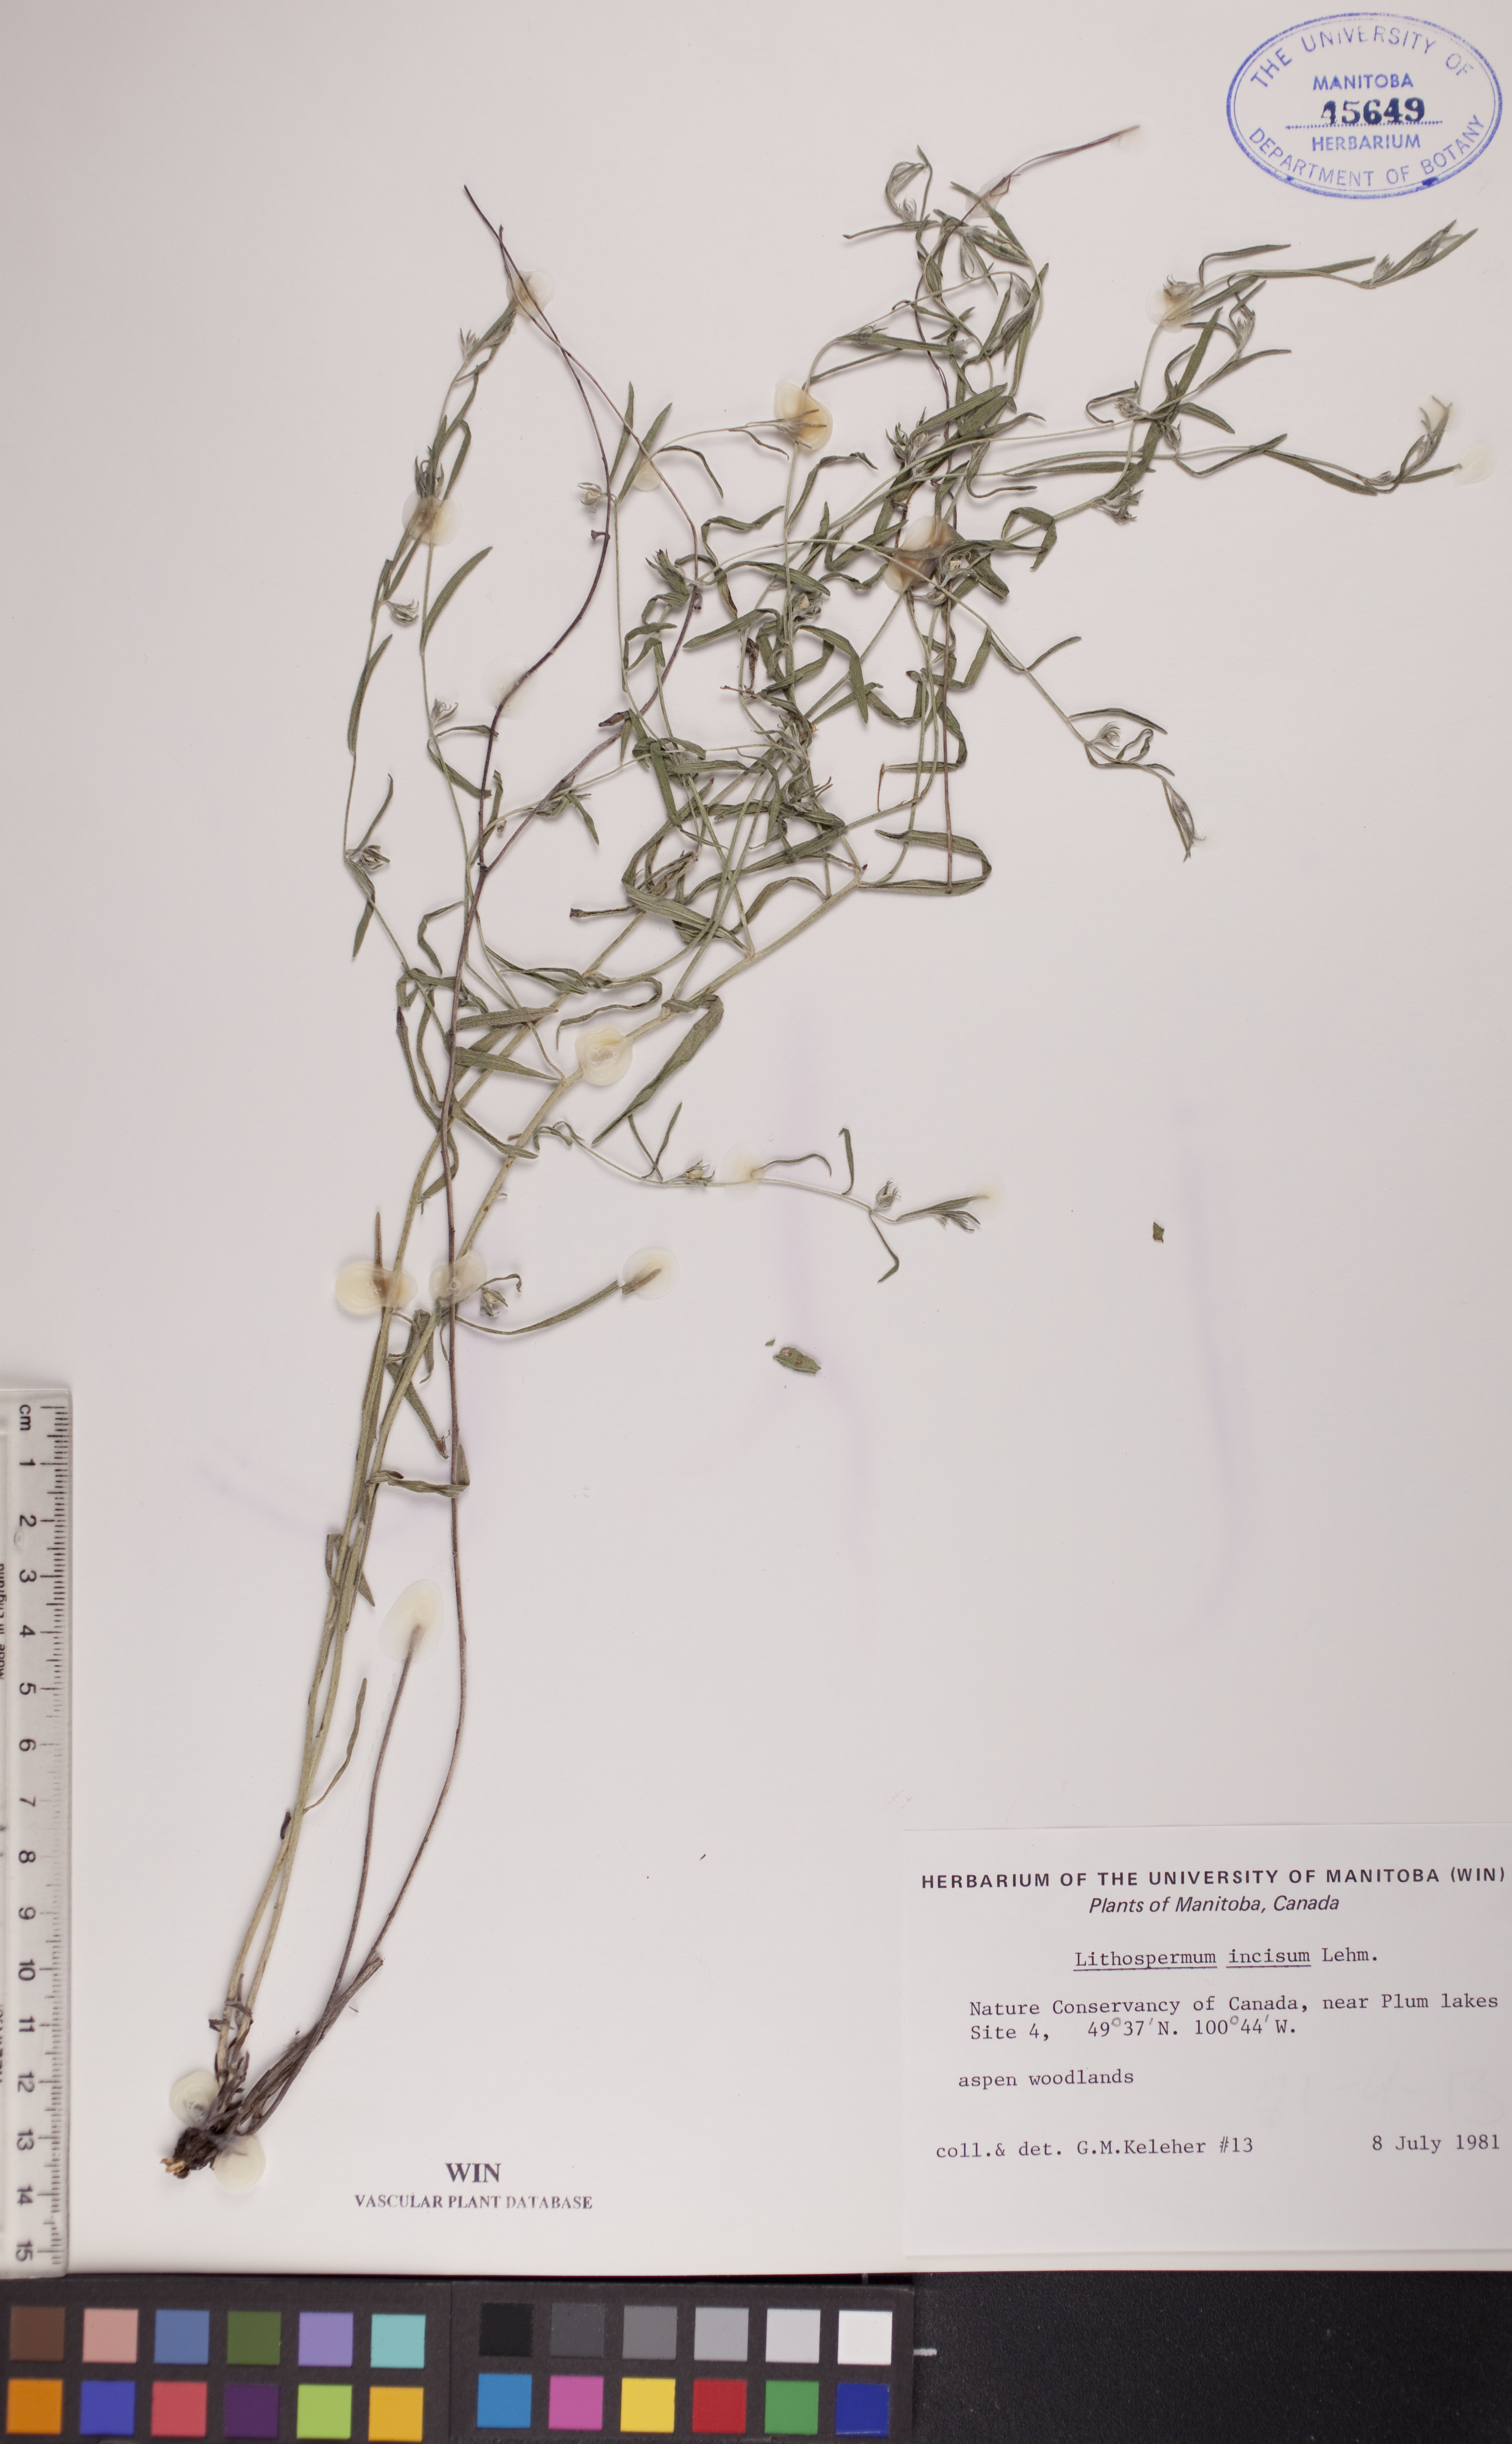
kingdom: Plantae
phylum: Tracheophyta
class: Magnoliopsida
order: Boraginales
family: Boraginaceae
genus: Lithospermum
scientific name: Lithospermum incisum
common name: Fringed gromwell
